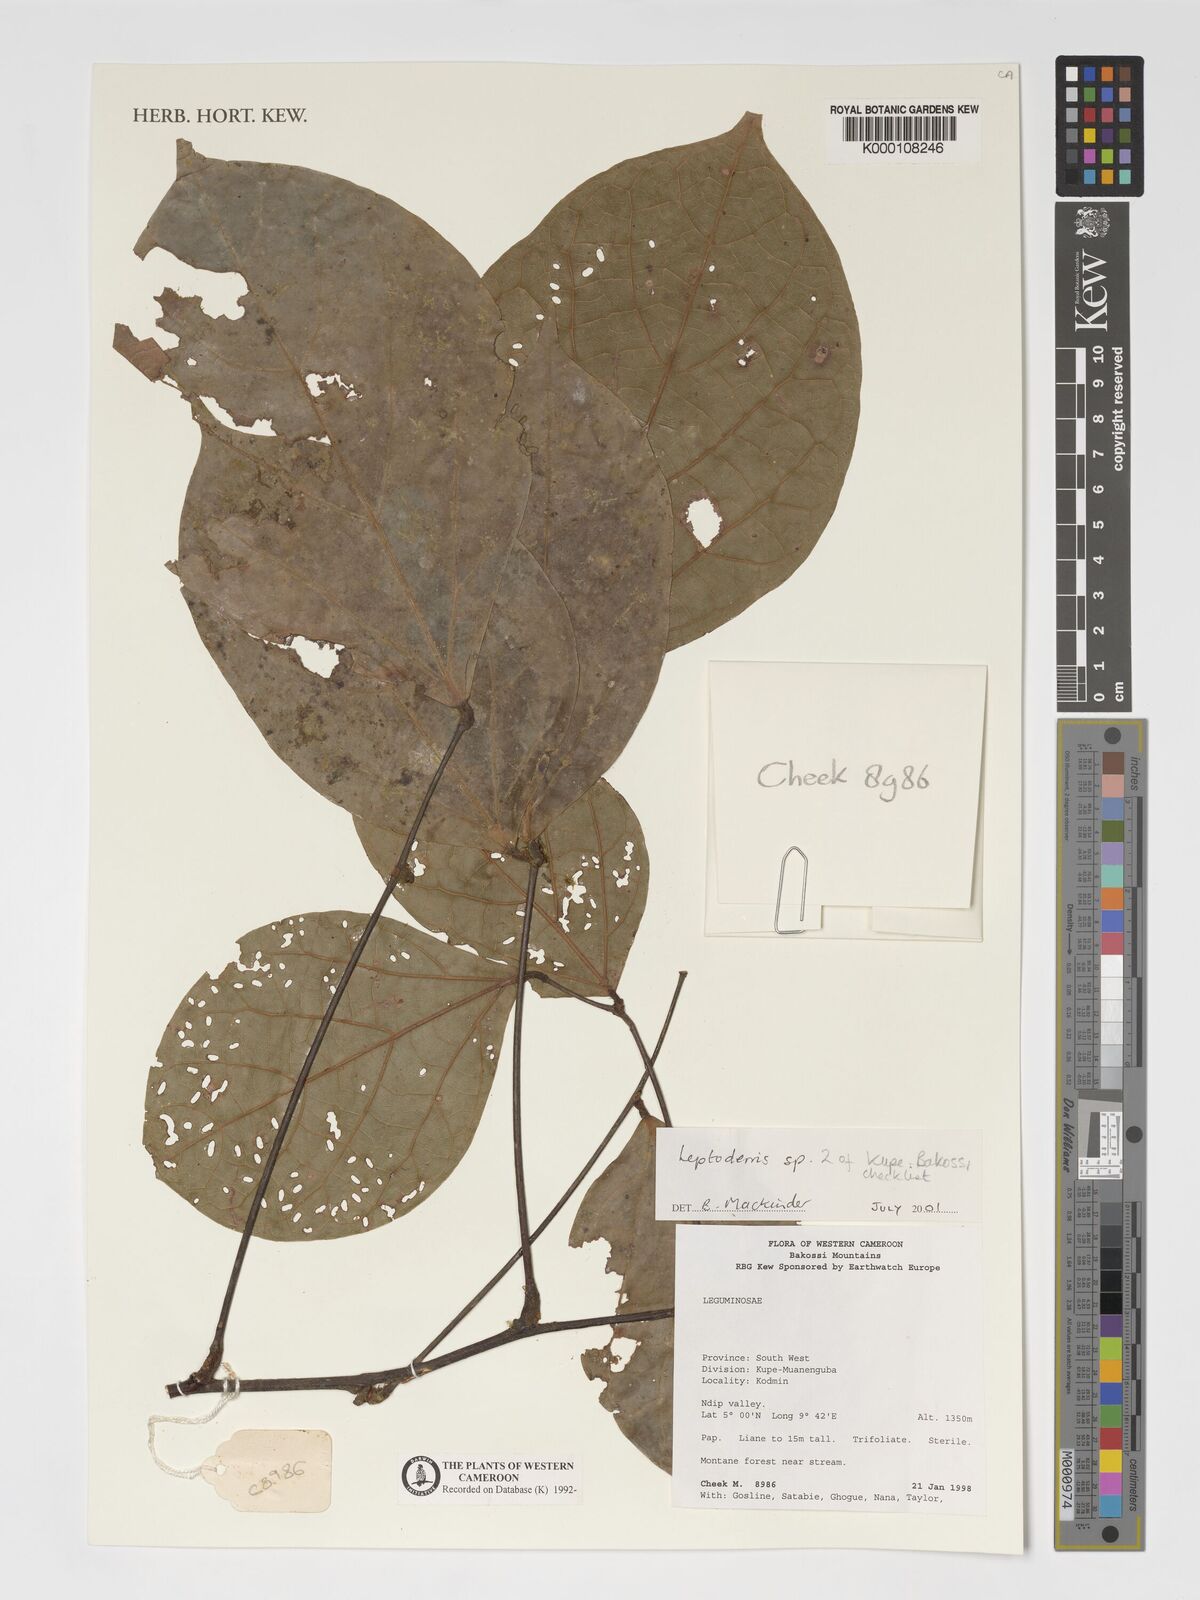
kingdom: Plantae
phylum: Tracheophyta
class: Magnoliopsida
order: Fabales
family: Fabaceae
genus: Leptoderris
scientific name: Leptoderris
